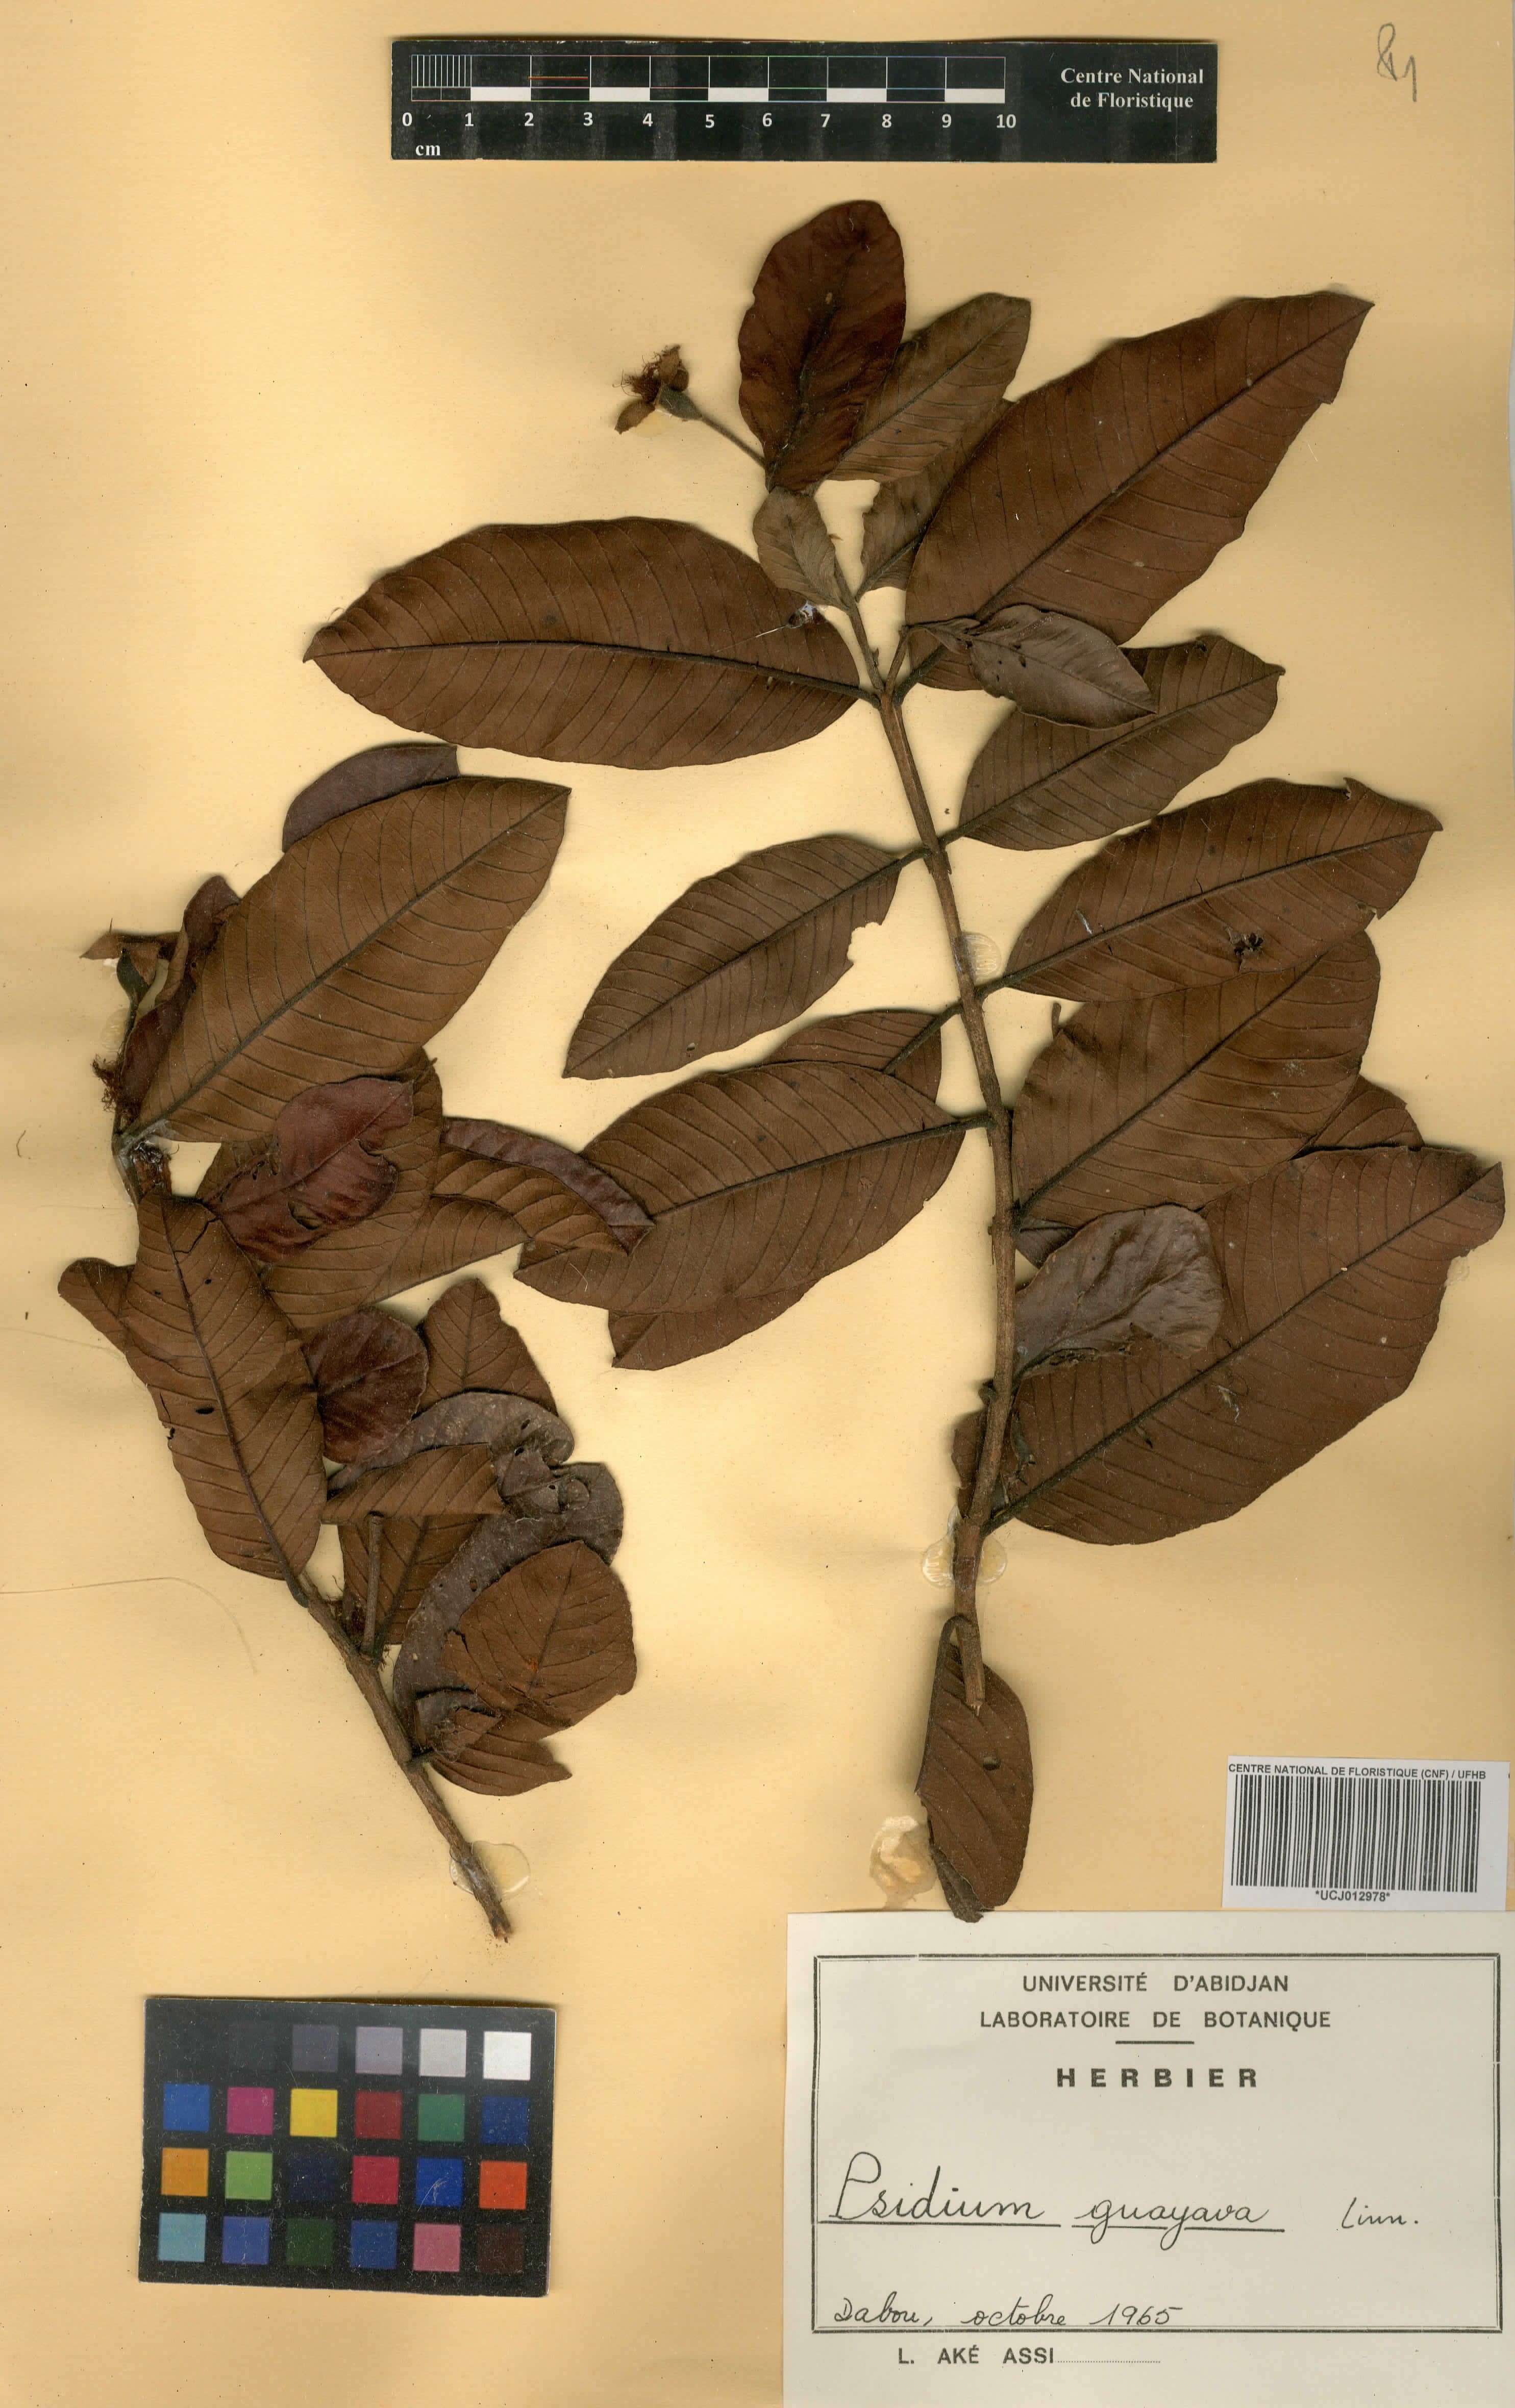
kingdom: Plantae
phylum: Tracheophyta
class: Magnoliopsida
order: Myrtales
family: Myrtaceae
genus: Psidium
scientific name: Psidium guajava
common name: Guava
